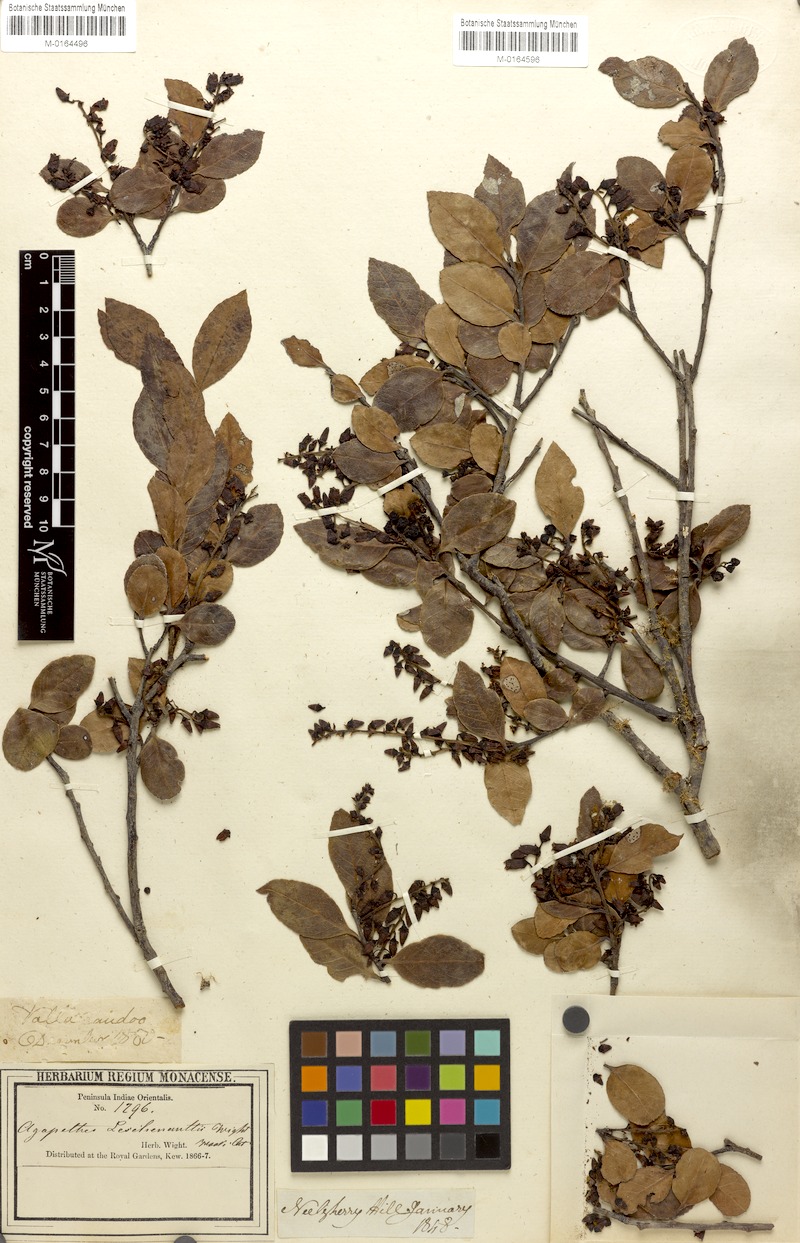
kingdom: Plantae
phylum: Tracheophyta
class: Magnoliopsida
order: Ericales
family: Ericaceae
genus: Vaccinium
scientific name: Vaccinium symplocifolium
